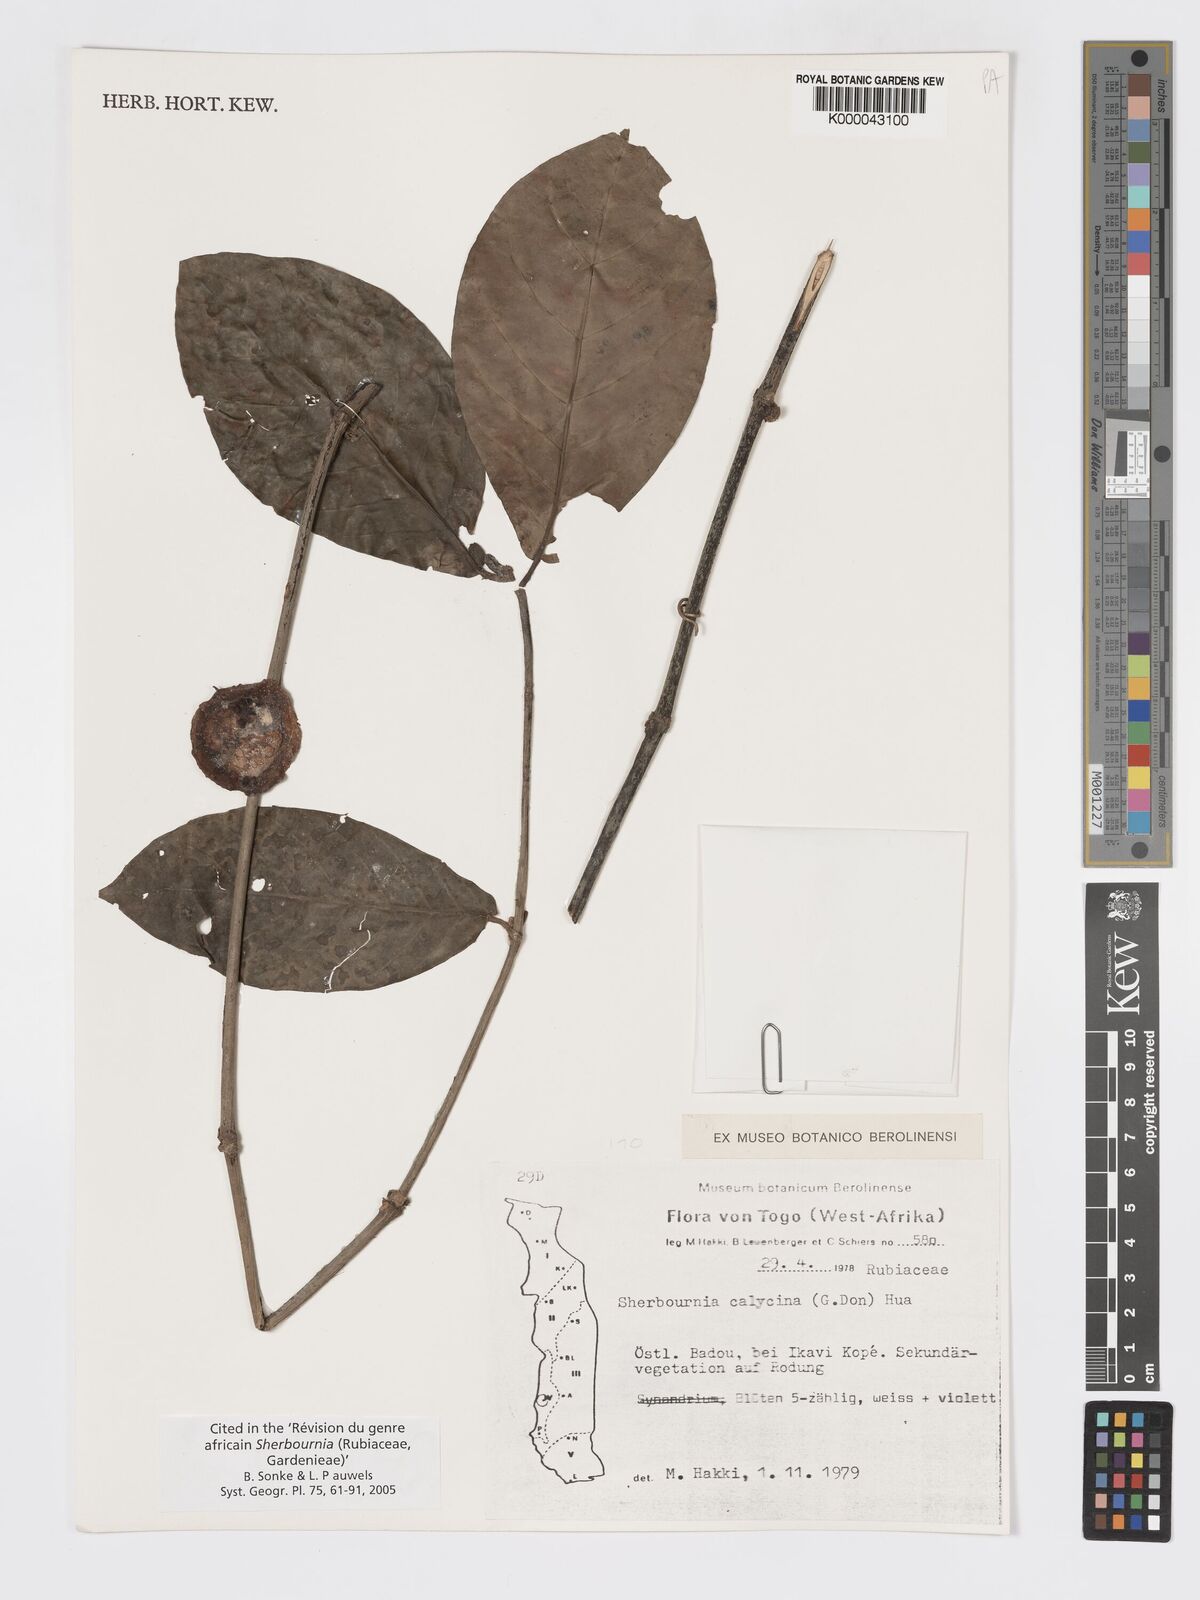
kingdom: Plantae
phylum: Tracheophyta
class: Magnoliopsida
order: Gentianales
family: Rubiaceae
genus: Sherbournia
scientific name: Sherbournia calycina
